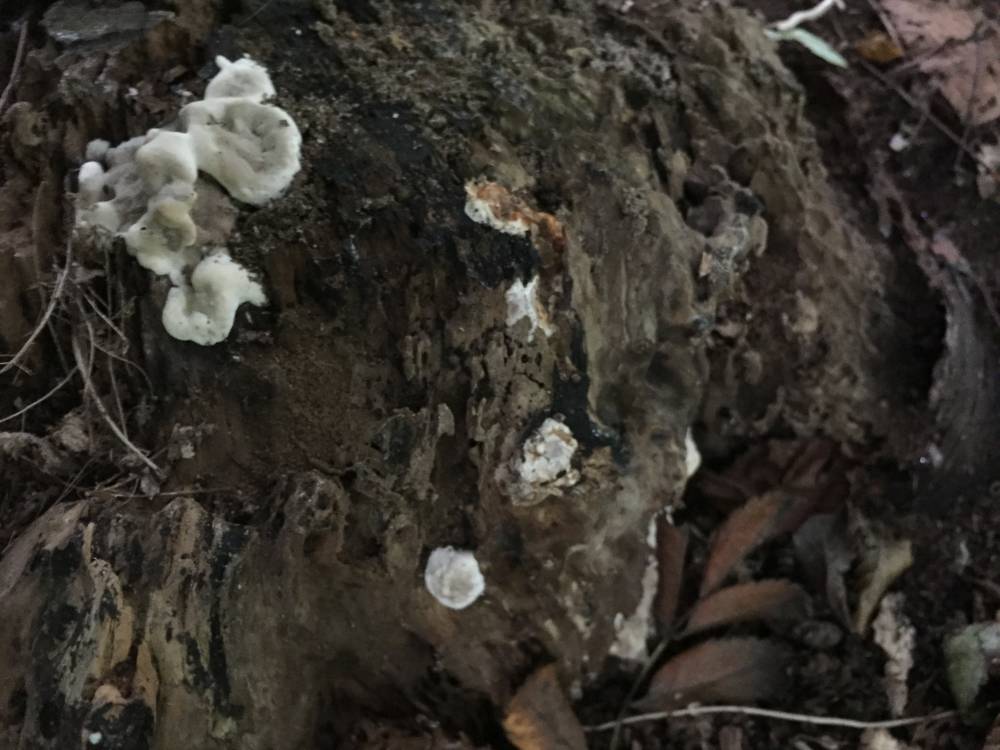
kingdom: Fungi
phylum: Ascomycota
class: Sordariomycetes
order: Xylariales
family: Xylariaceae
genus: Kretzschmaria
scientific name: Kretzschmaria deusta
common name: stor kulsvamp
